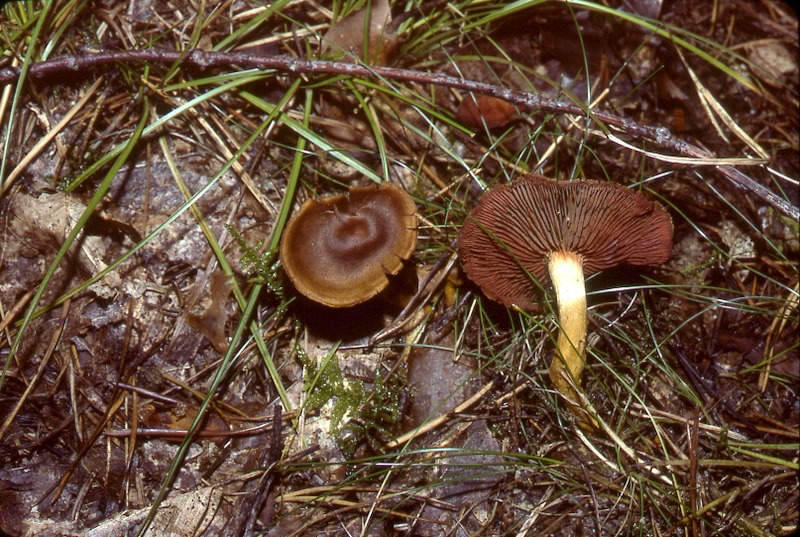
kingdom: Fungi
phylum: Basidiomycota
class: Agaricomycetes
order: Agaricales
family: Cortinariaceae
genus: Cortinarius
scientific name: Cortinarius semisanguineus
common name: Surprise webcap
